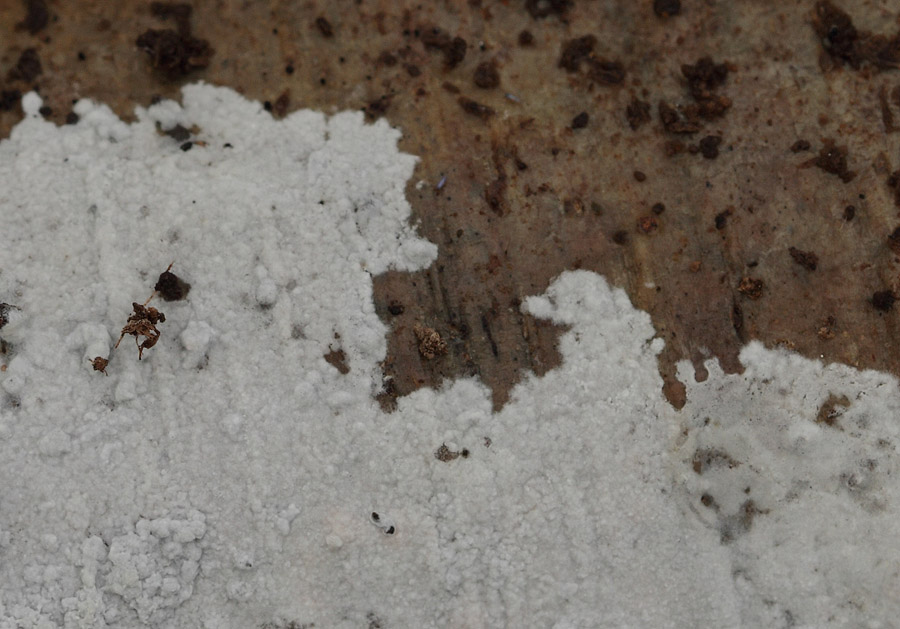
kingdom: Fungi
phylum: Basidiomycota
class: Agaricomycetes
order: Atheliales
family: Atheliaceae
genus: Athelia
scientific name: Athelia epiphylla
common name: almindelig barkhinde
